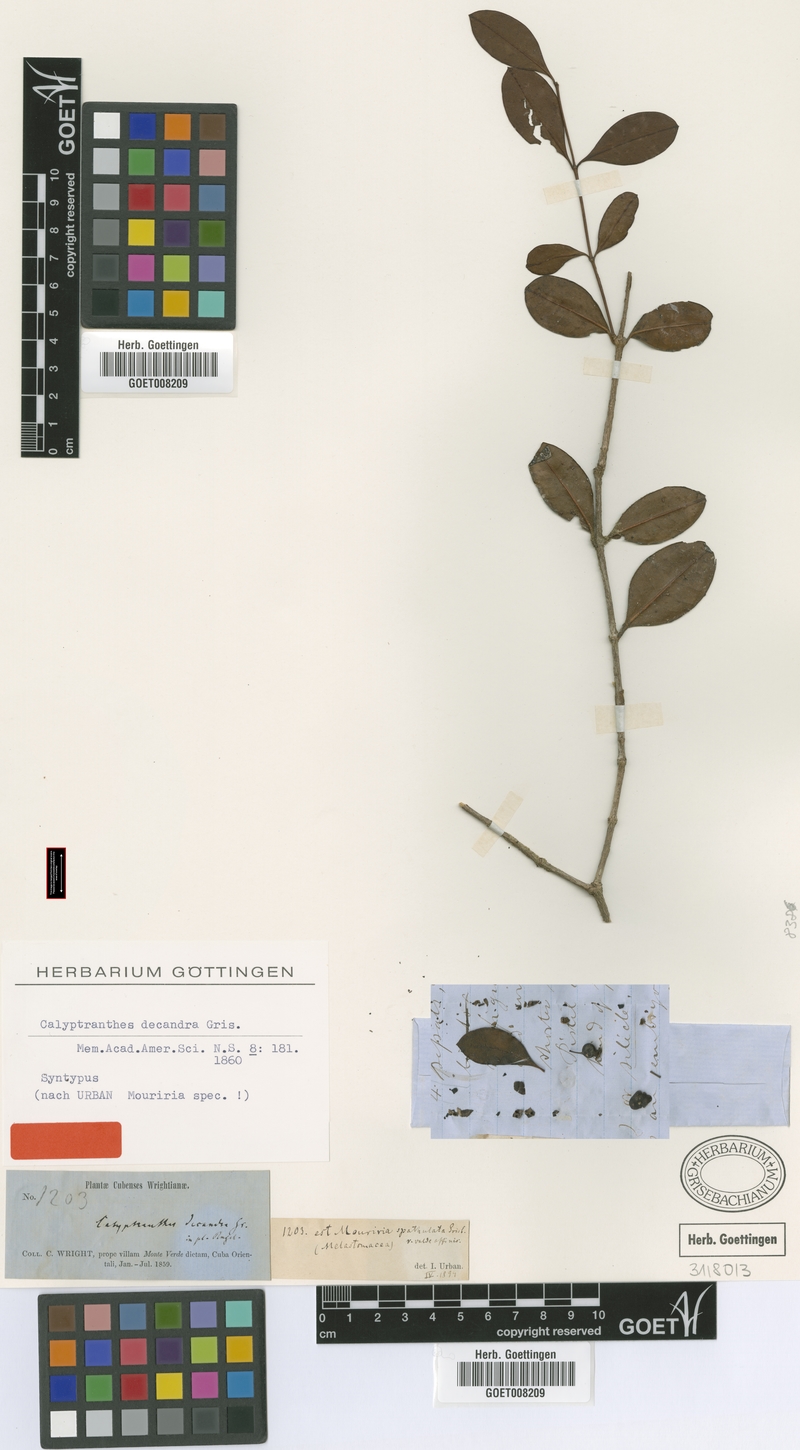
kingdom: Plantae
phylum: Tracheophyta
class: Magnoliopsida
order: Myrtales
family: Myrtaceae
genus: Myrcia
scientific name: Myrcia decandra
